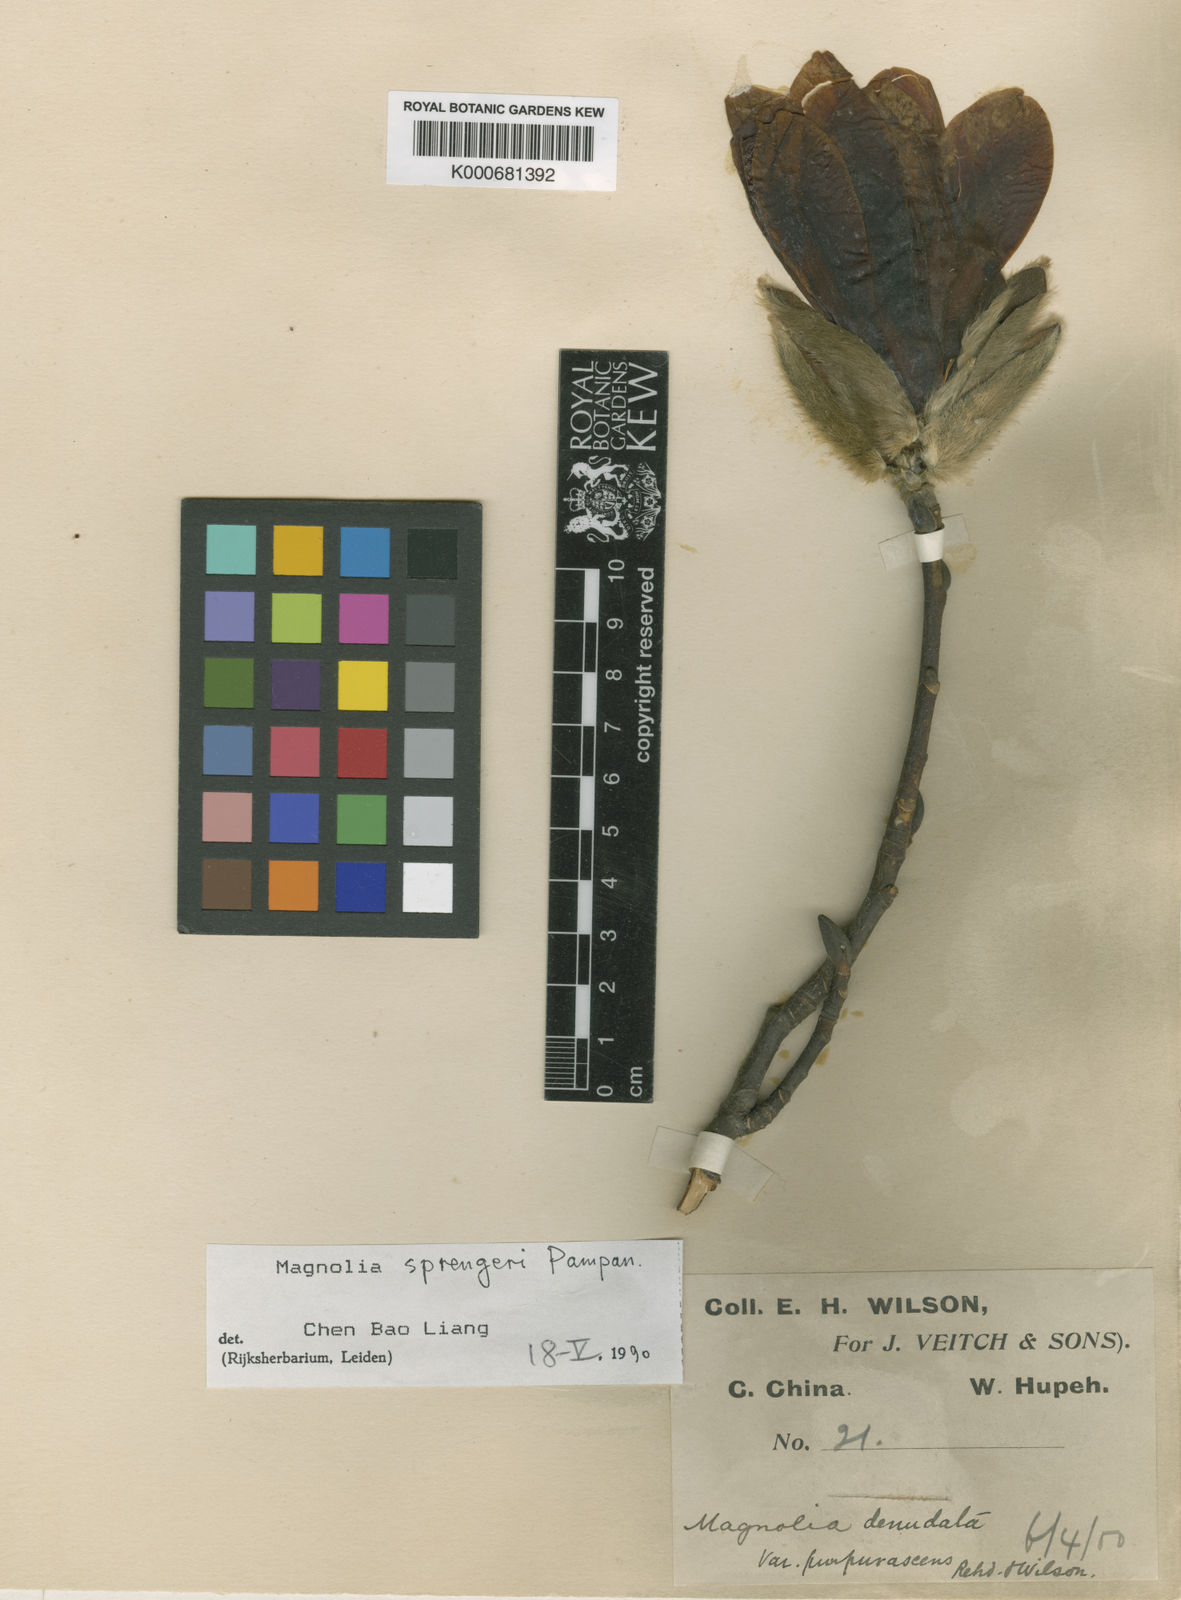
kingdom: Plantae
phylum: Tracheophyta
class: Magnoliopsida
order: Magnoliales
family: Magnoliaceae
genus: Magnolia
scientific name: Magnolia sprengeri
